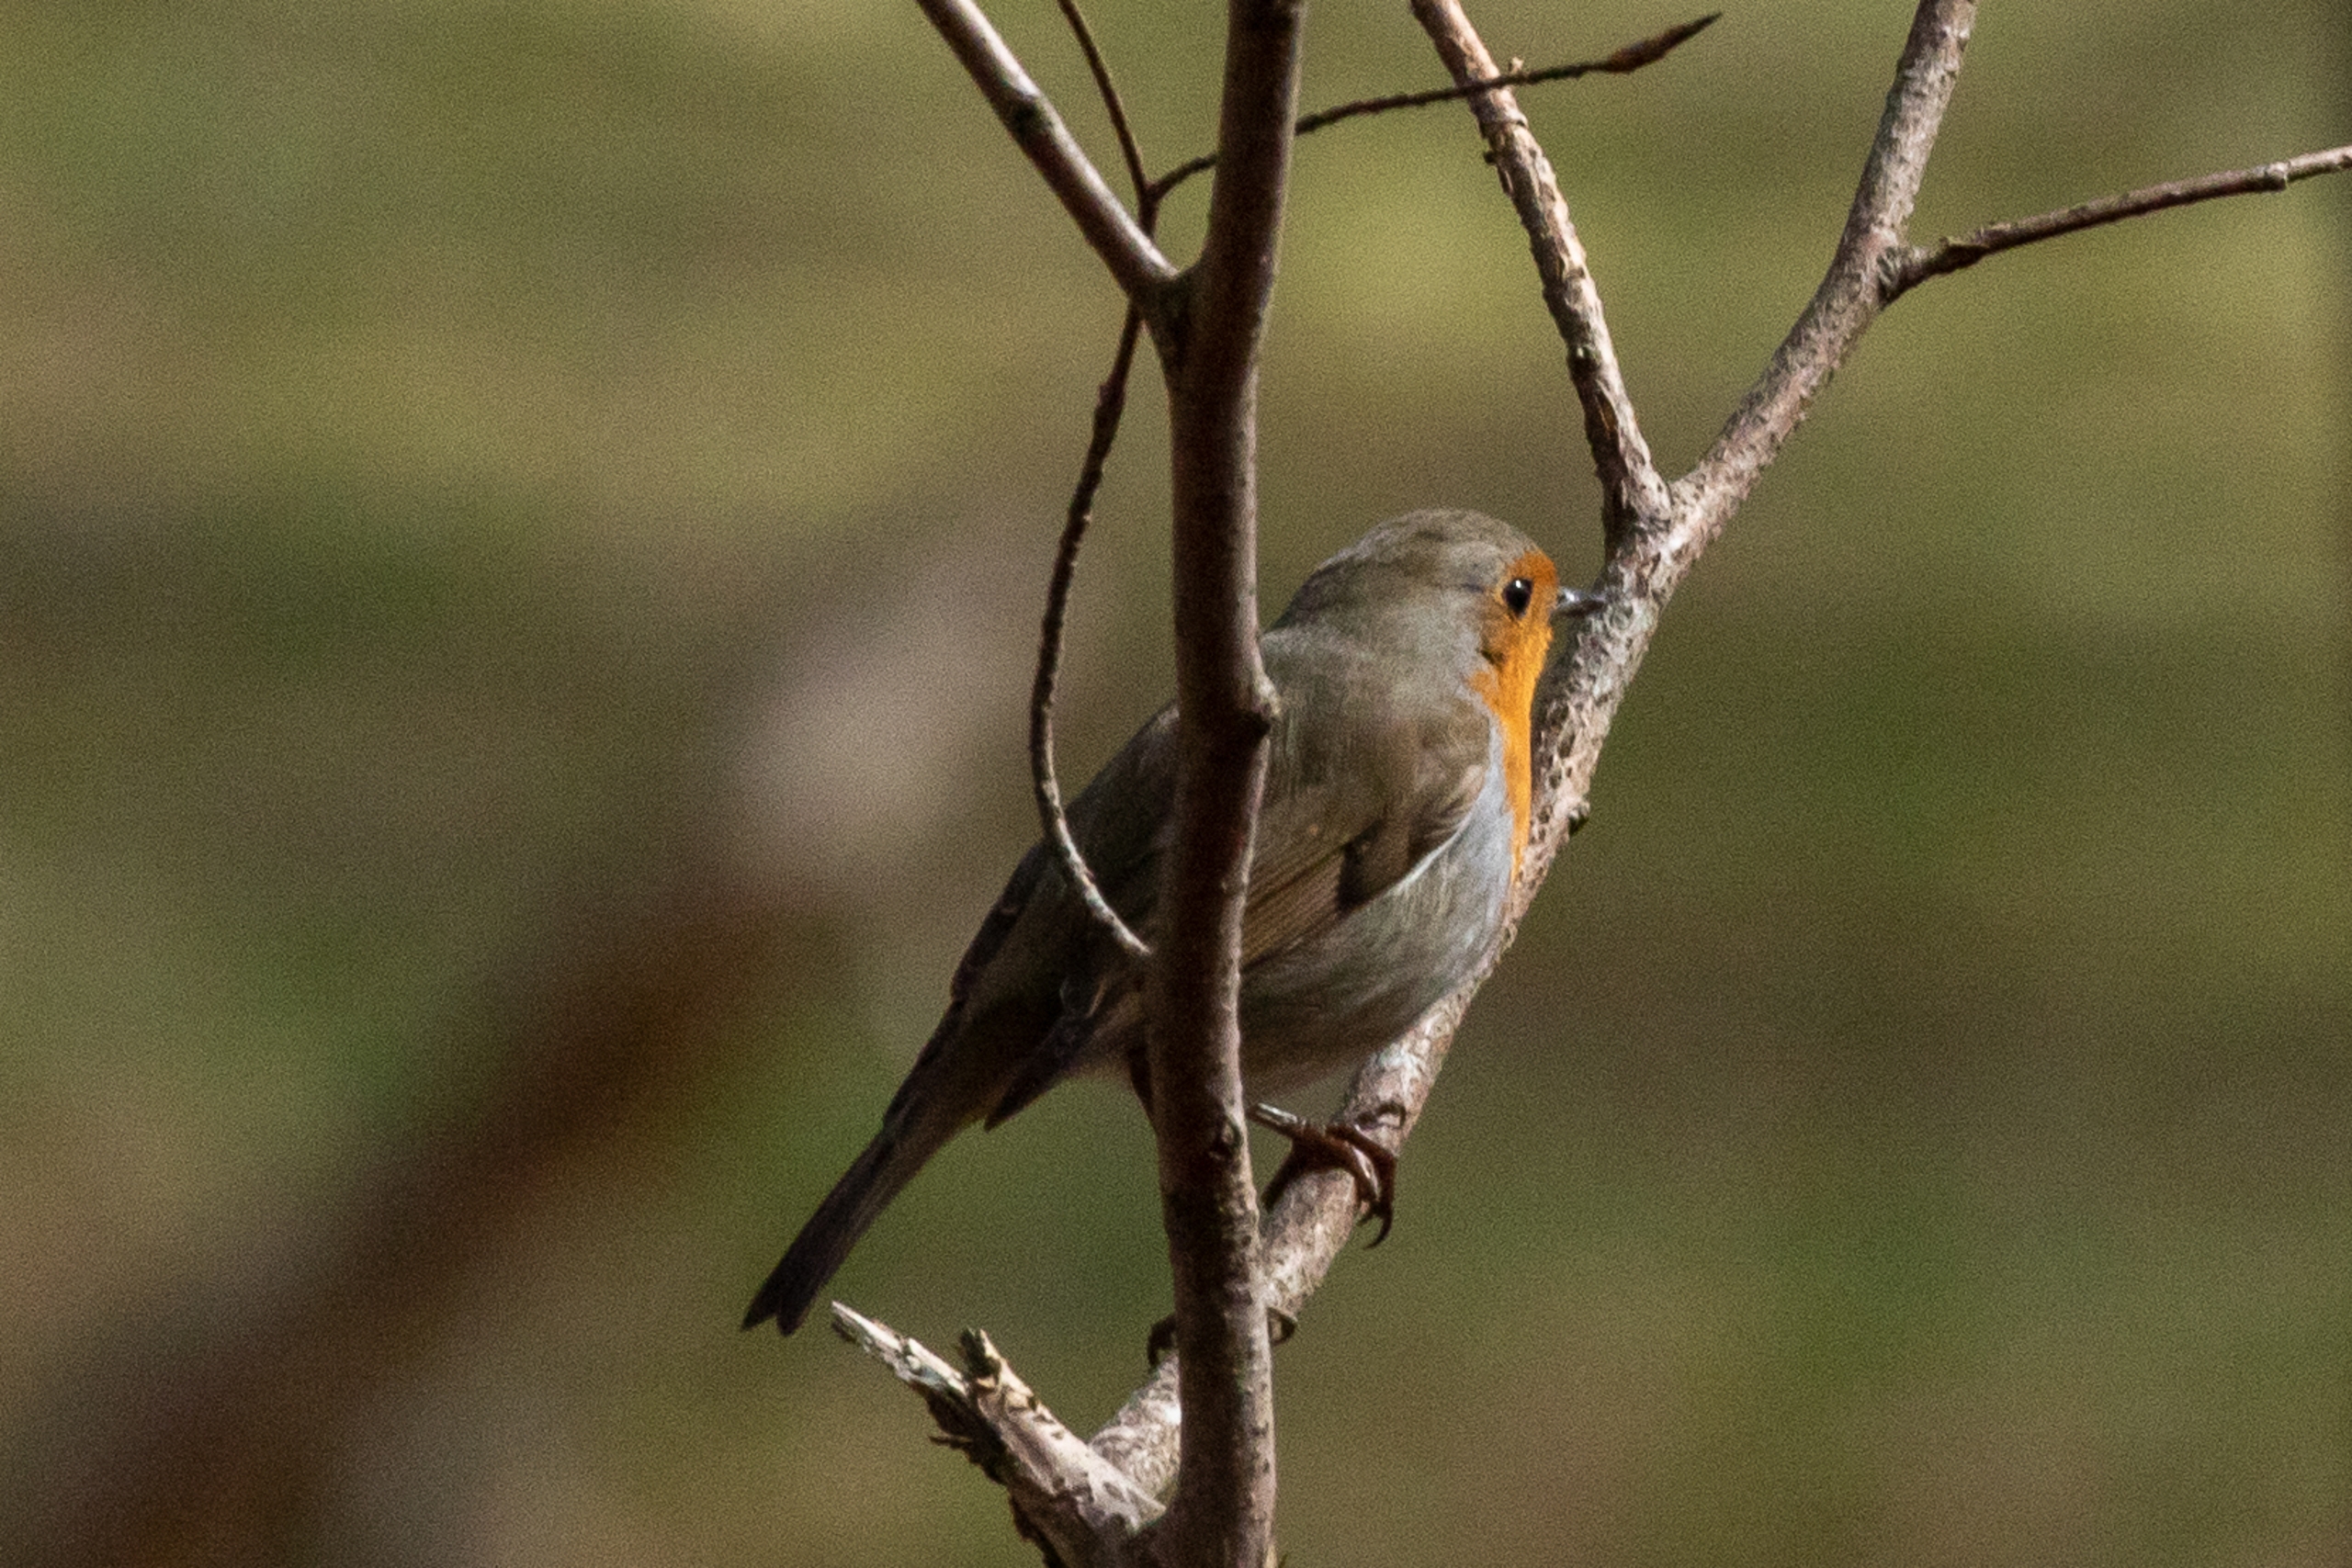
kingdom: Animalia
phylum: Chordata
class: Aves
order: Passeriformes
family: Muscicapidae
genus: Erithacus
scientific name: Erithacus rubecula
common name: Rødhals/rødkælk
